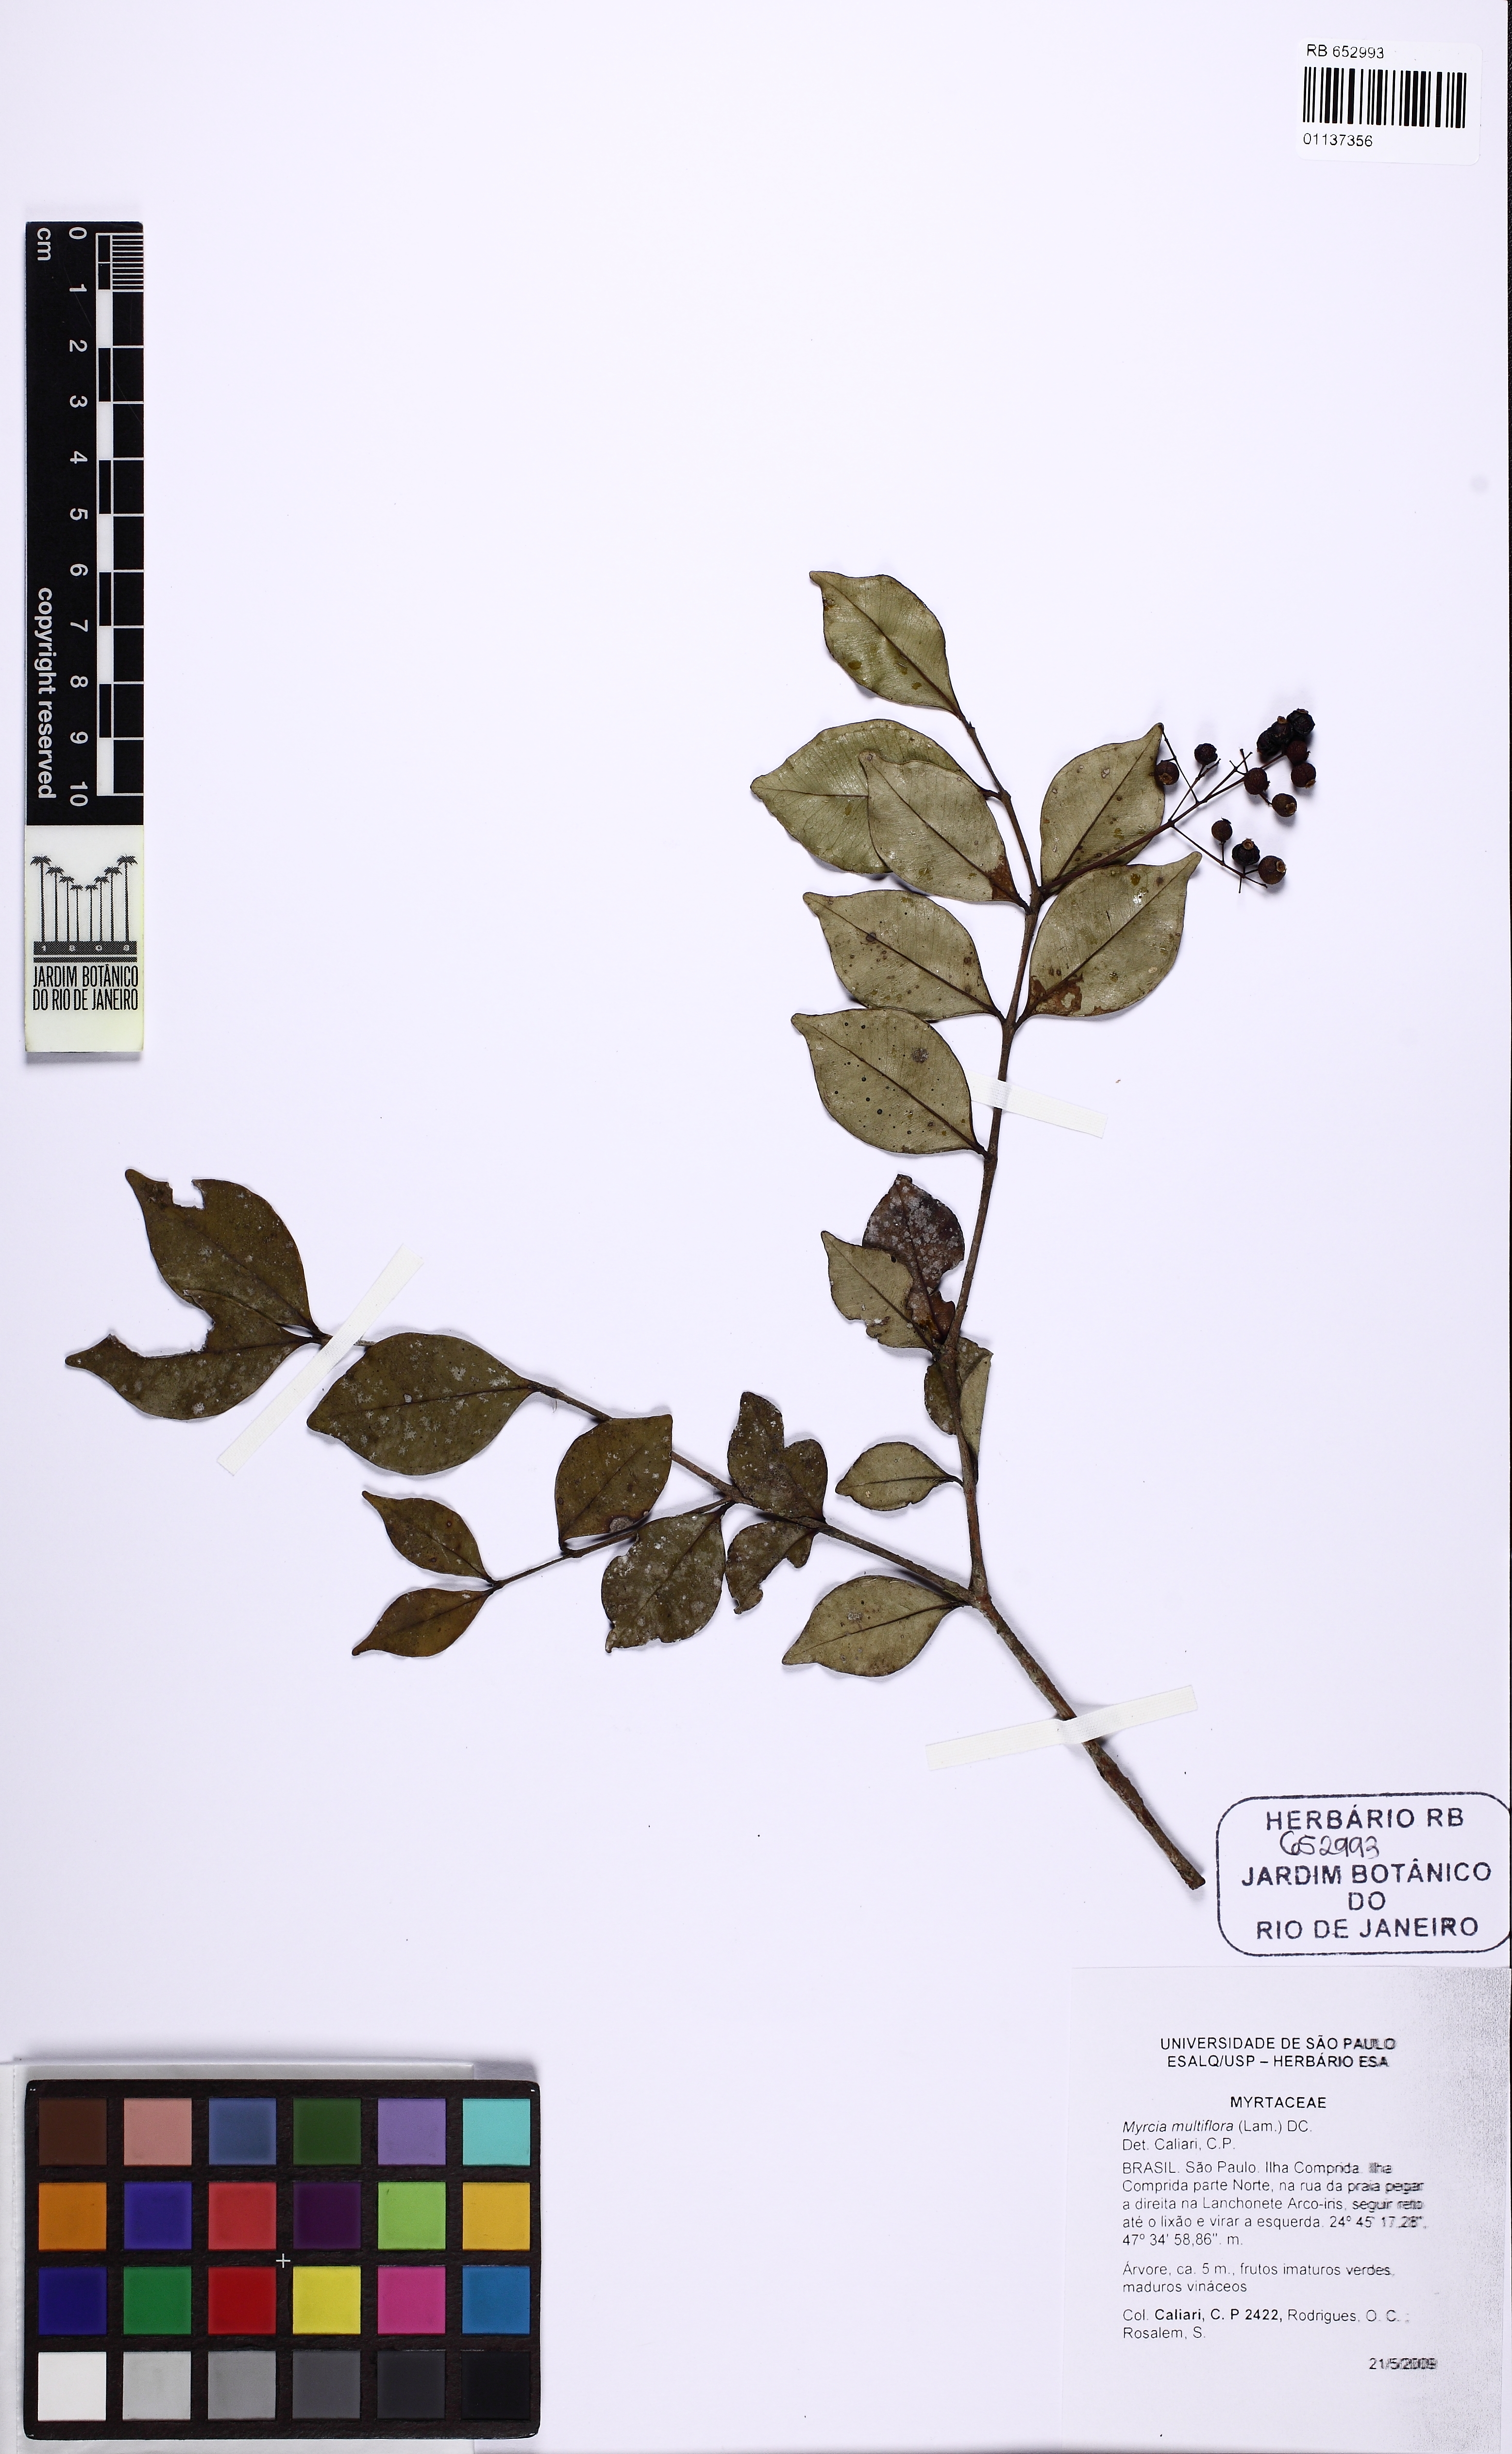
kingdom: Plantae
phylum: Tracheophyta
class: Magnoliopsida
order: Myrtales
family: Myrtaceae
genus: Myrcia
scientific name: Myrcia multiflora
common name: Pedra hume
